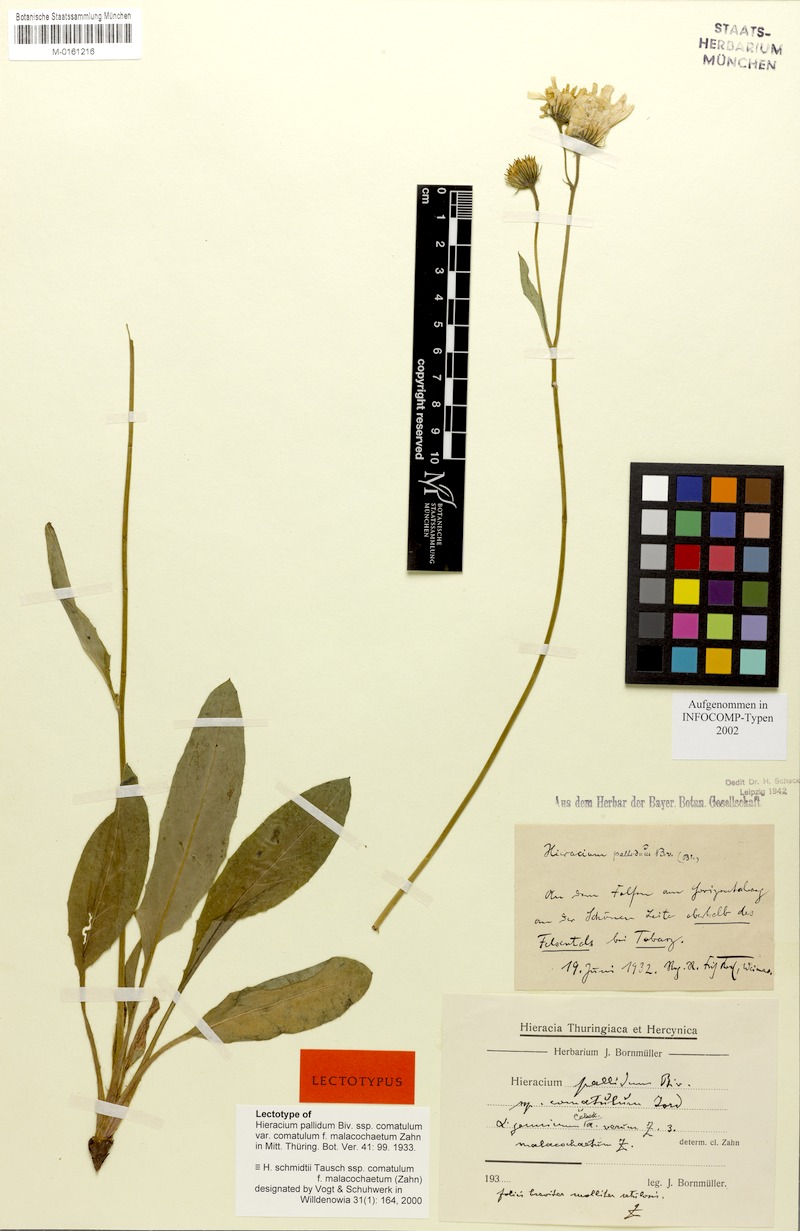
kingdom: Plantae
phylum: Tracheophyta
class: Magnoliopsida
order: Asterales
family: Asteraceae
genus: Hieracium
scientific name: Hieracium schmidtii
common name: Schmidt's hawkweed
